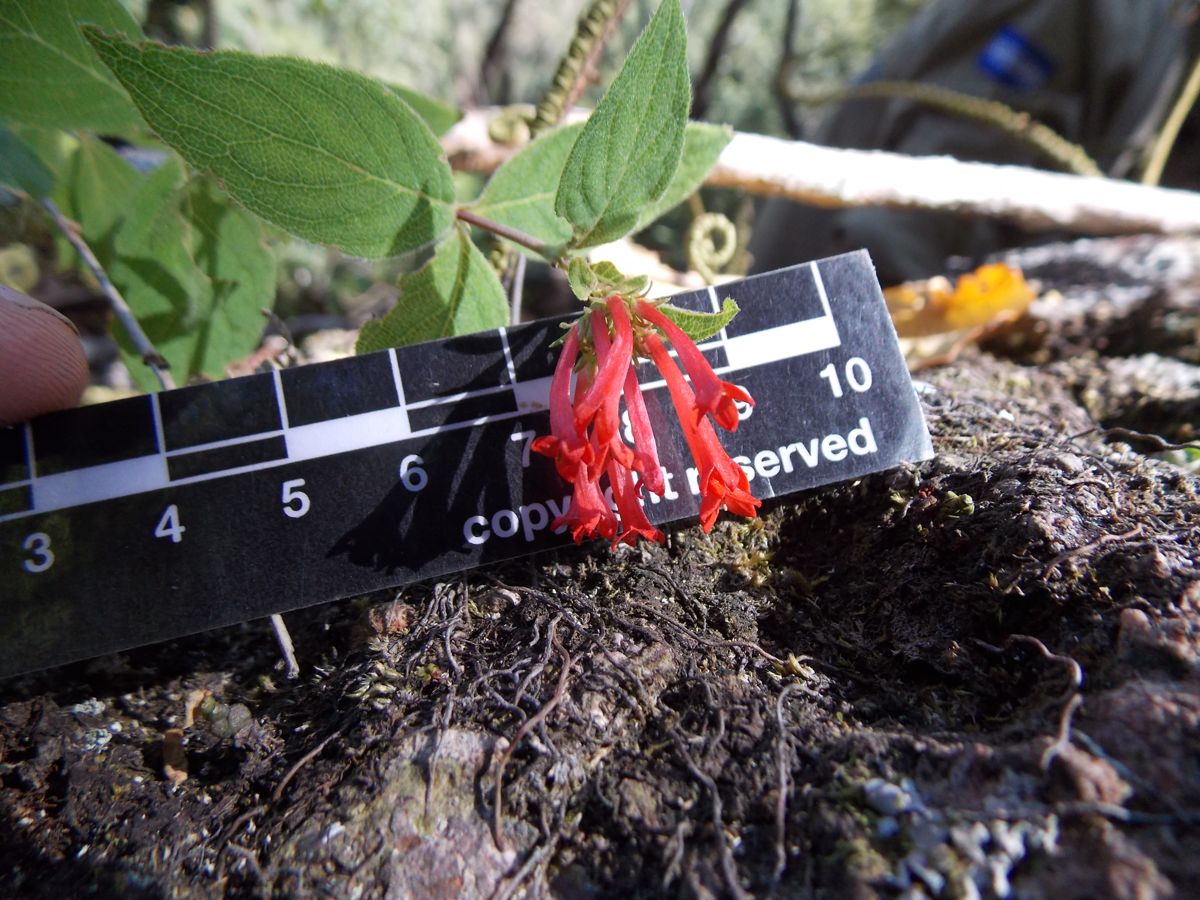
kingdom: Plantae
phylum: Tracheophyta
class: Magnoliopsida
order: Gentianales
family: Rubiaceae
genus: Bouvardia
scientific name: Bouvardia leiantha
